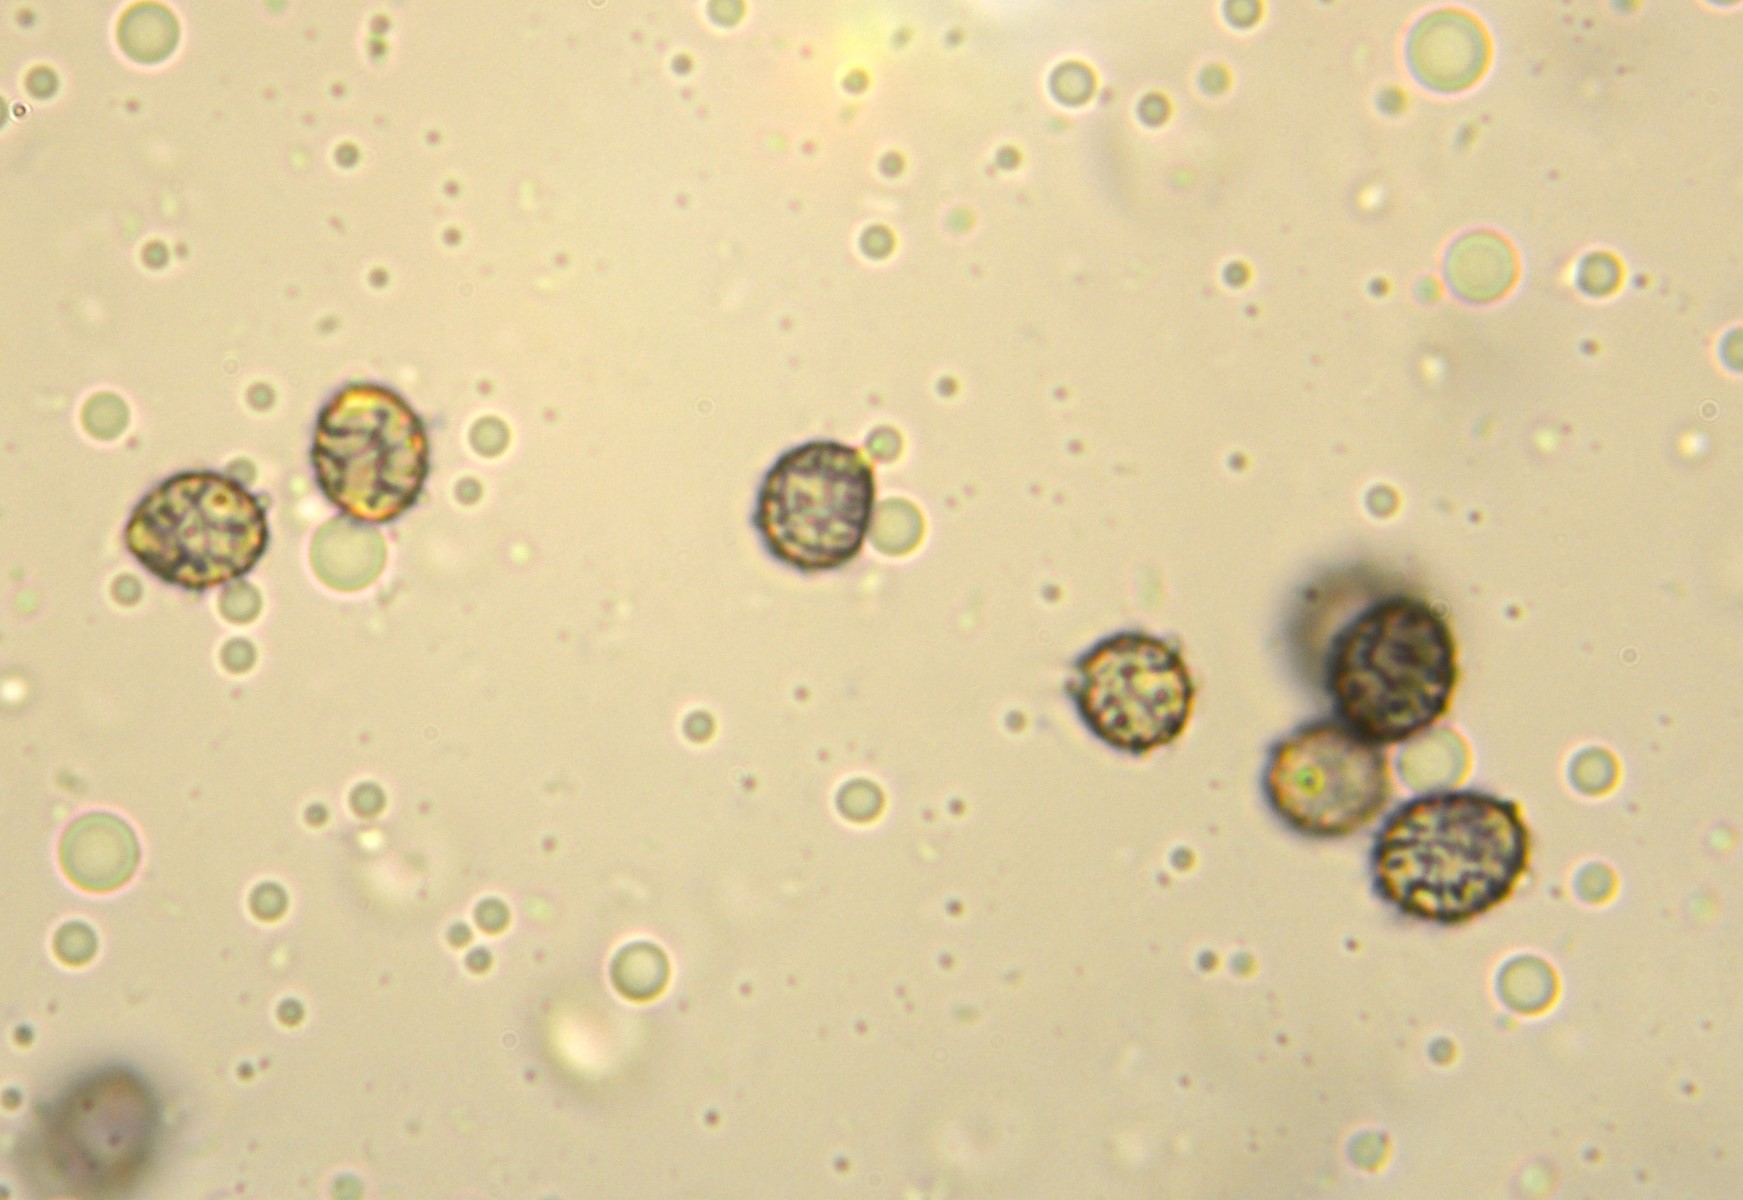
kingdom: Fungi
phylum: Basidiomycota
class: Agaricomycetes
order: Russulales
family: Russulaceae
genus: Russula
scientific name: Russula romellii
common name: romells skørhat
